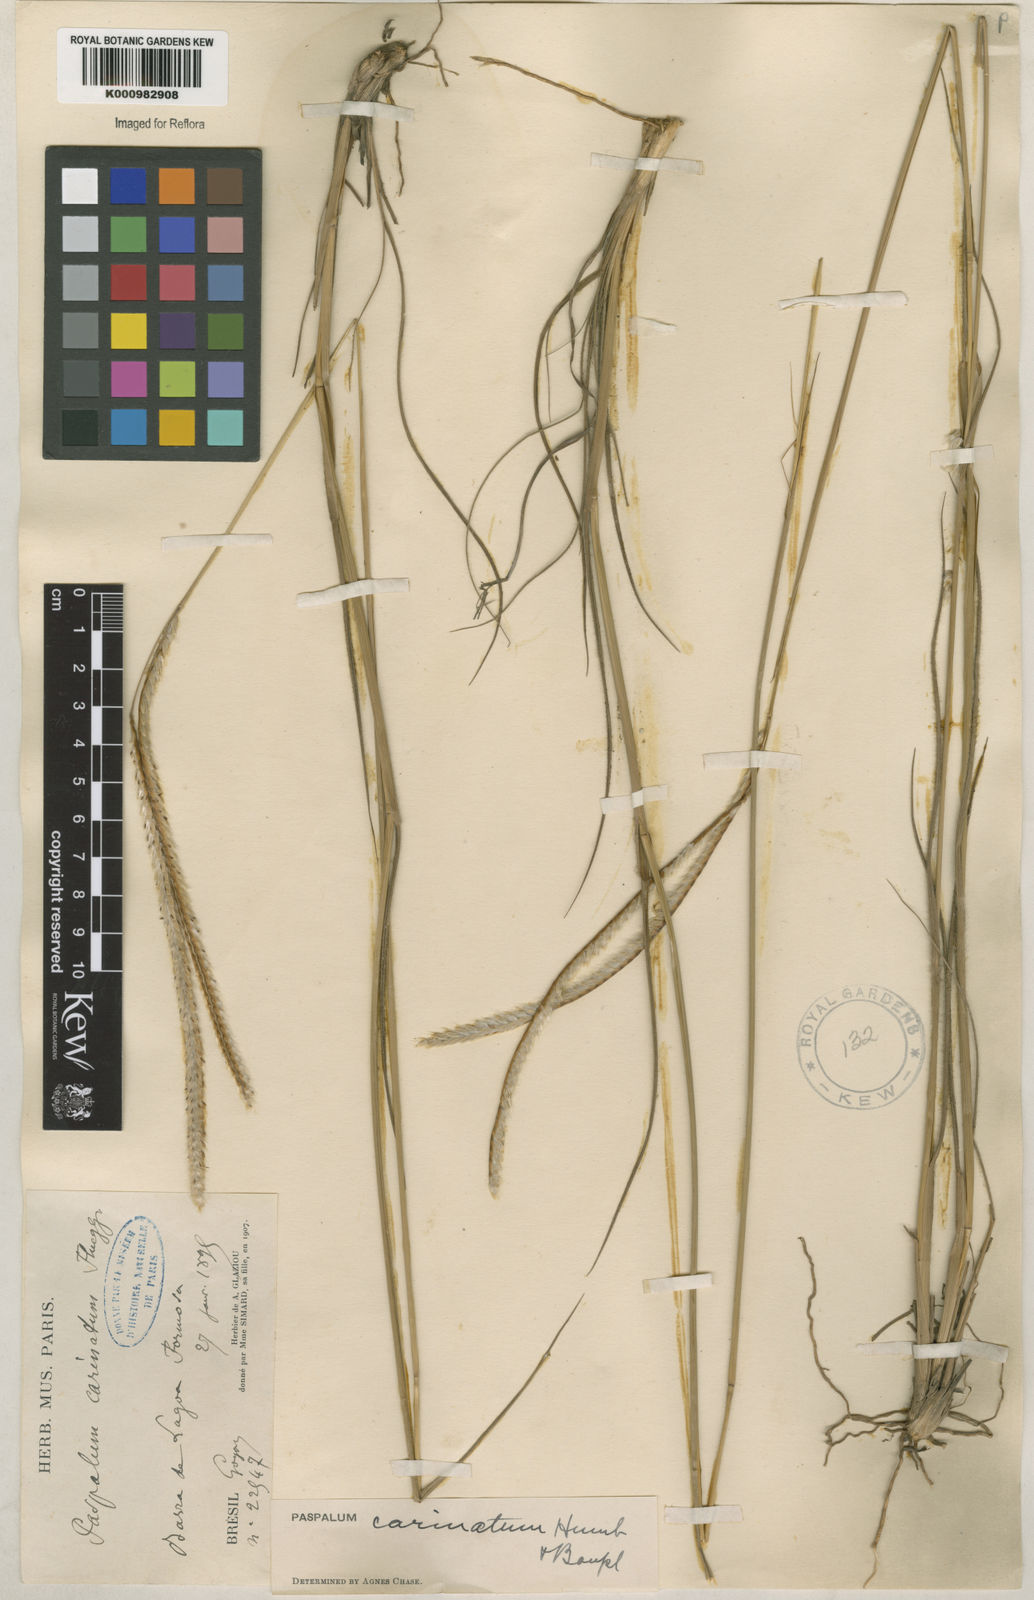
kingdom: Plantae
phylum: Tracheophyta
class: Liliopsida
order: Poales
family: Poaceae
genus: Paspalum
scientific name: Paspalum
